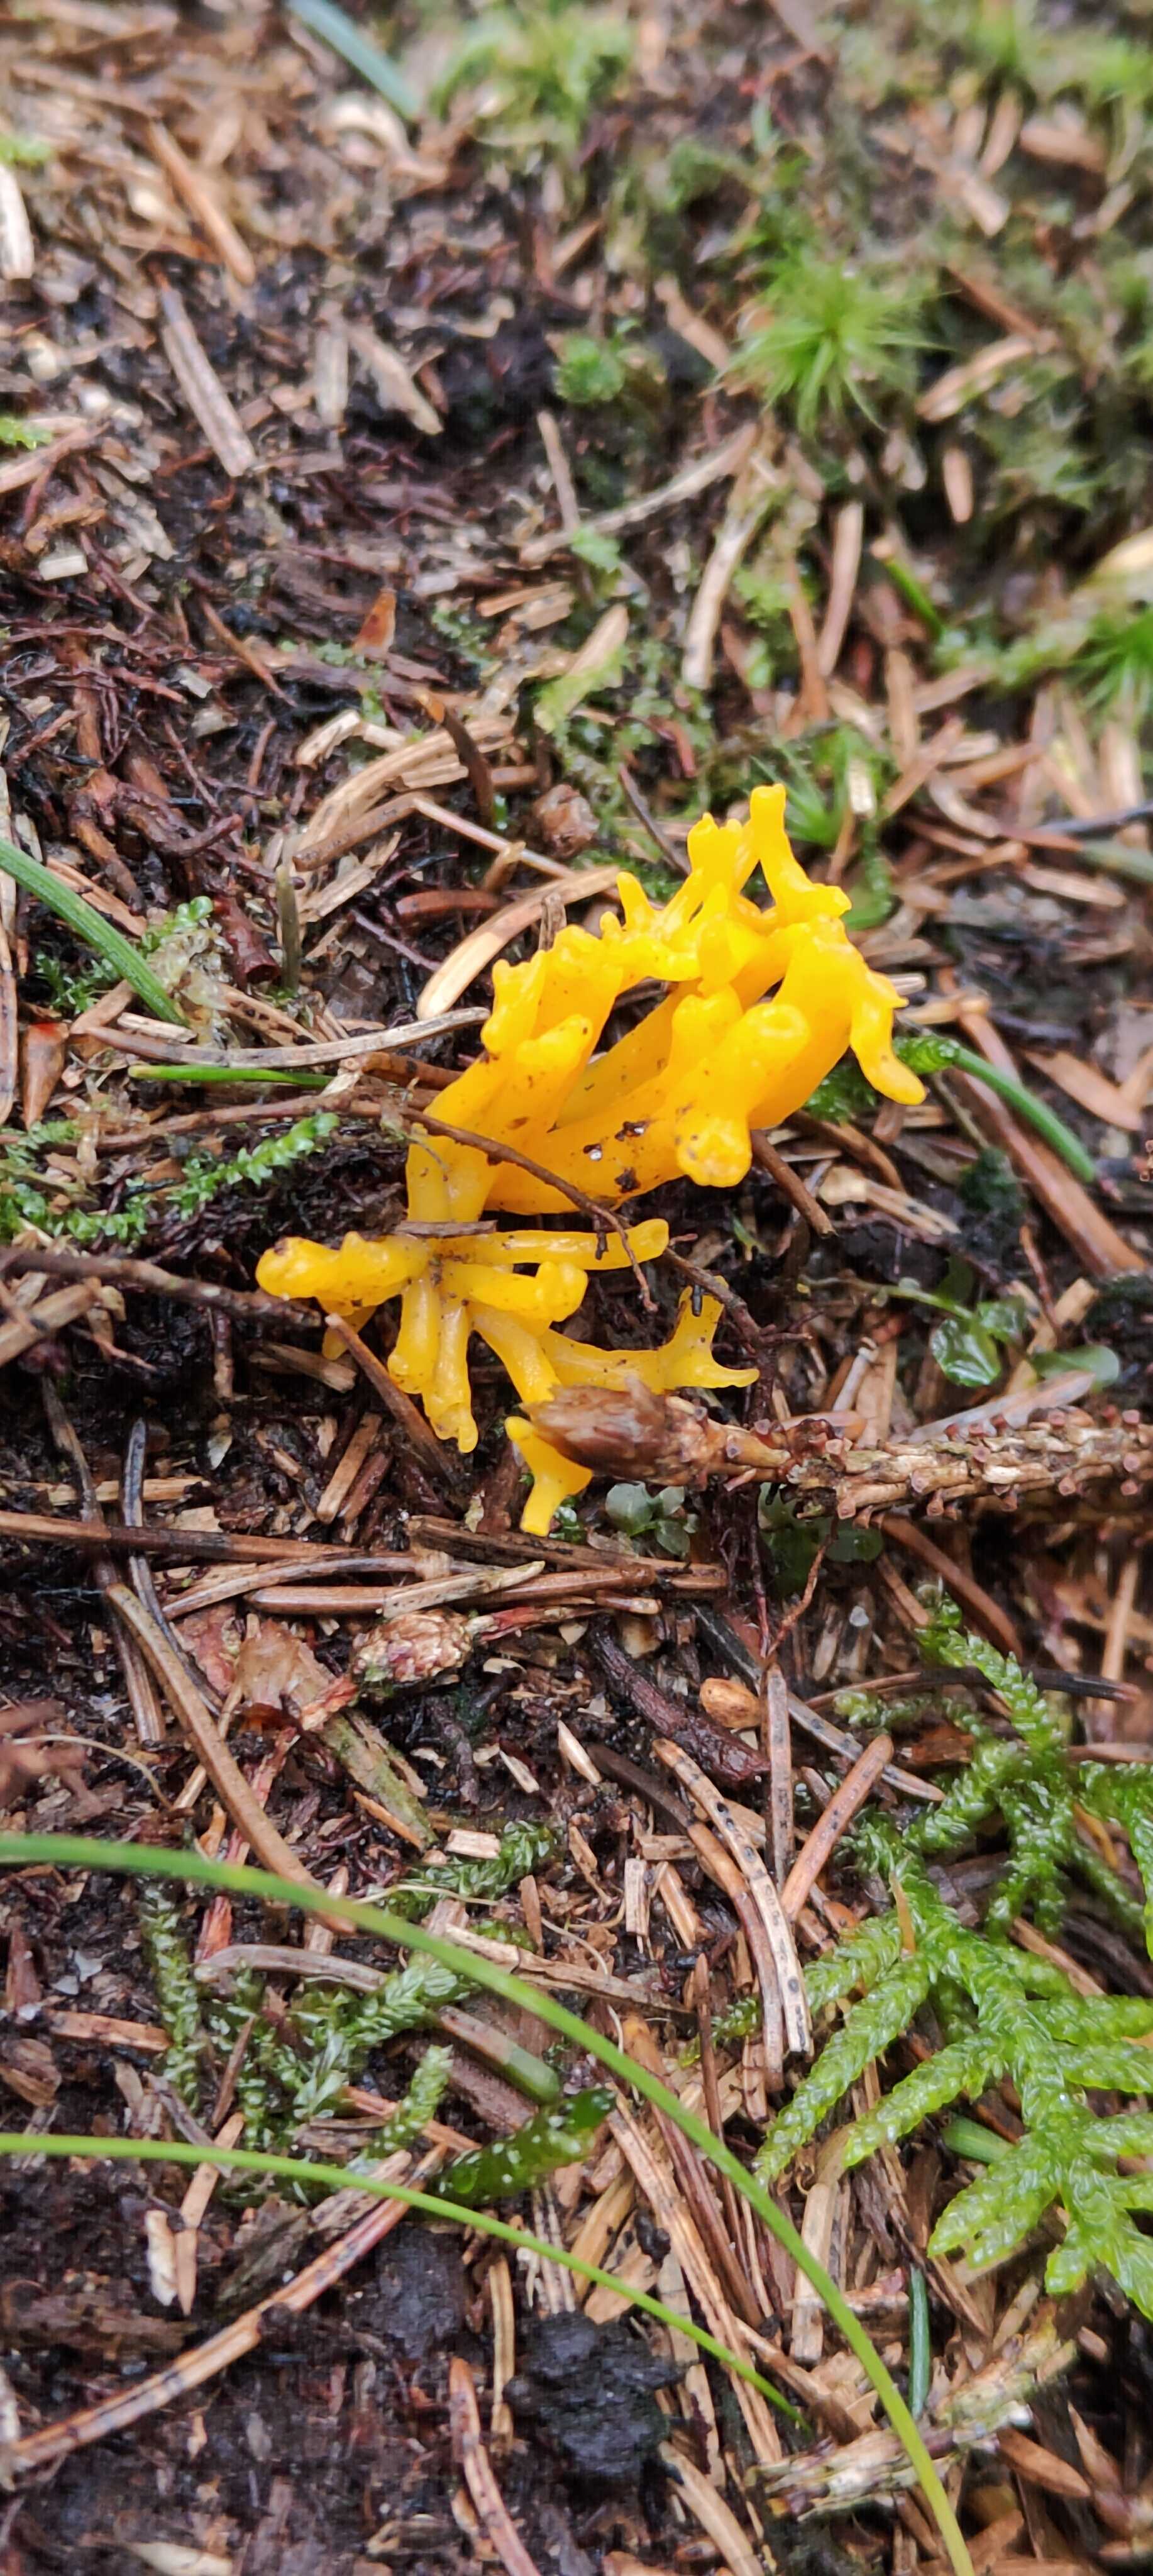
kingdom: Fungi
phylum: Basidiomycota
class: Dacrymycetes
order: Dacrymycetales
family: Dacrymycetaceae
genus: Calocera
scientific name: Calocera viscosa
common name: almindelig guldgaffel
